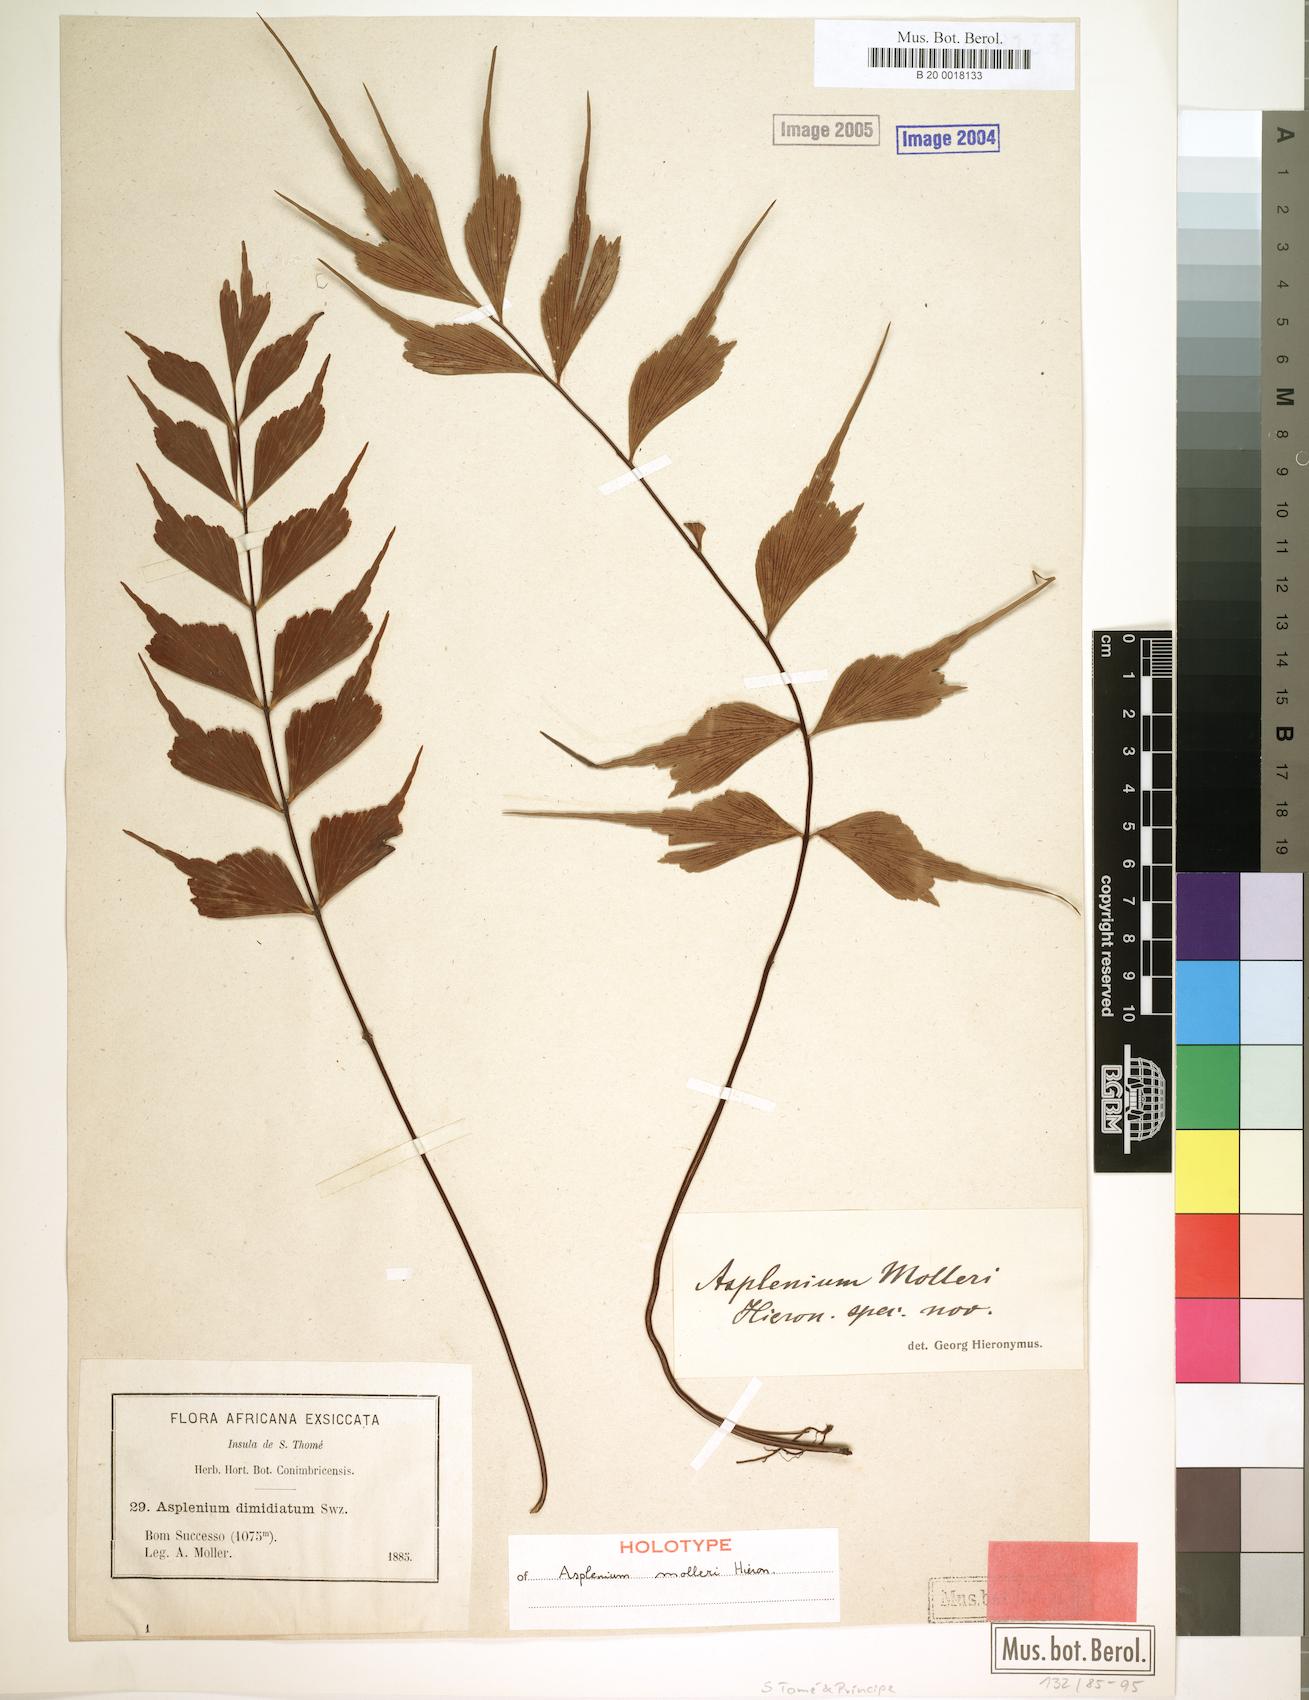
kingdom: Plantae
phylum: Tracheophyta
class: Polypodiopsida
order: Polypodiales
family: Aspleniaceae
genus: Asplenium
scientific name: Asplenium megalura
